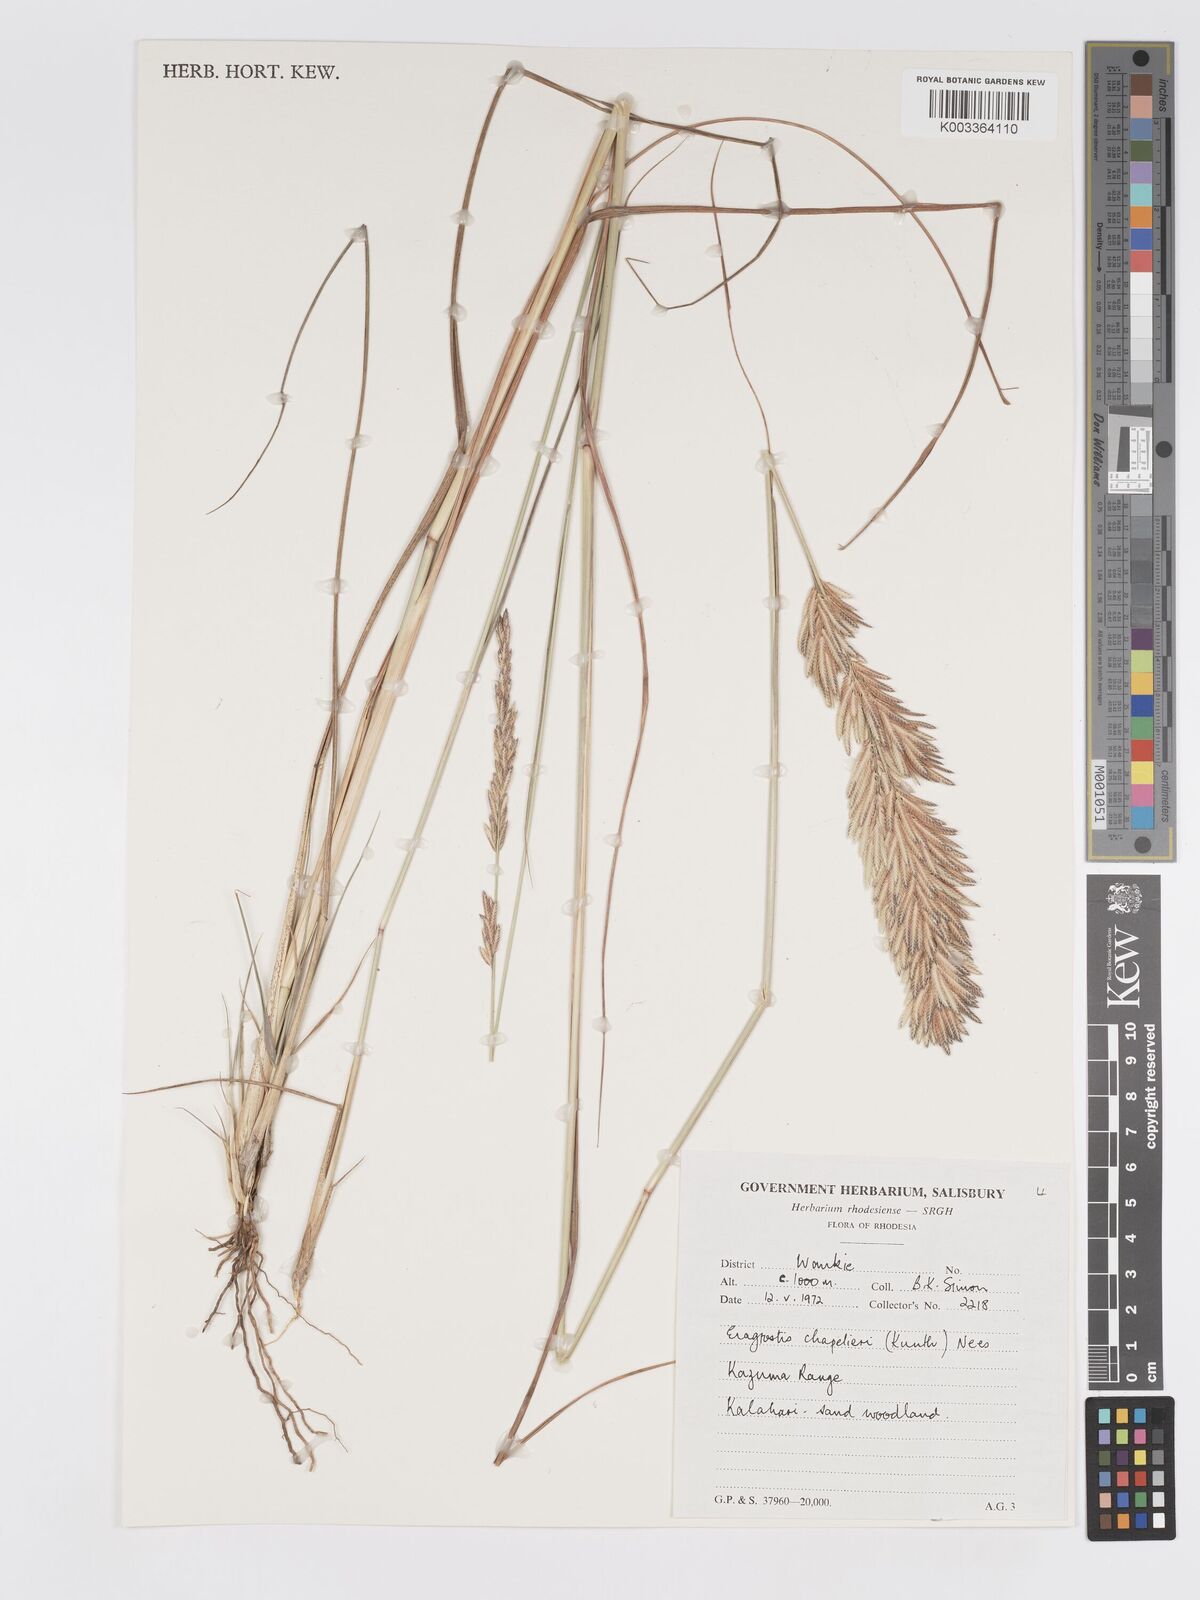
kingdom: Plantae
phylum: Tracheophyta
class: Liliopsida
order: Poales
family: Poaceae
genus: Eragrostis
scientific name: Eragrostis chapelieri
